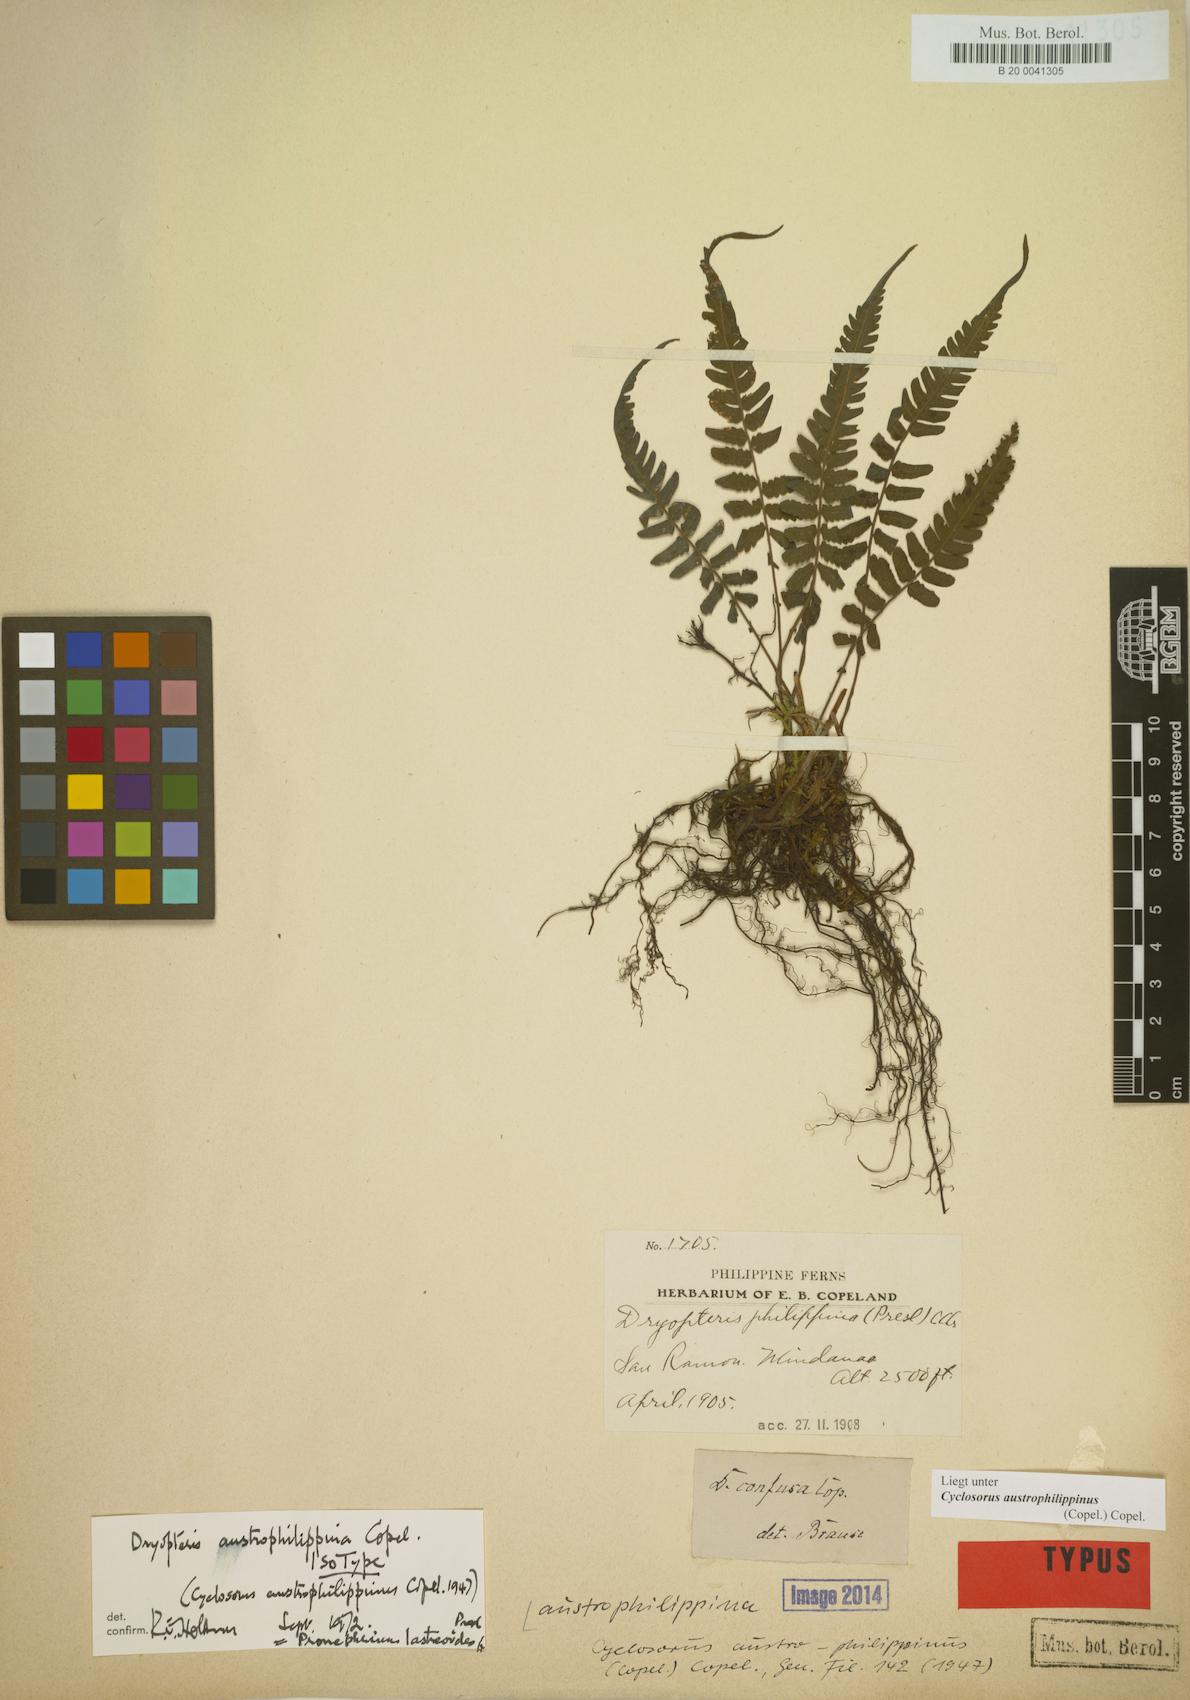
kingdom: Plantae
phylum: Tracheophyta
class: Polypodiopsida
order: Polypodiales
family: Thelypteridaceae
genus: Sphaerostephanos
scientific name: Sphaerostephanos sessilipinna
